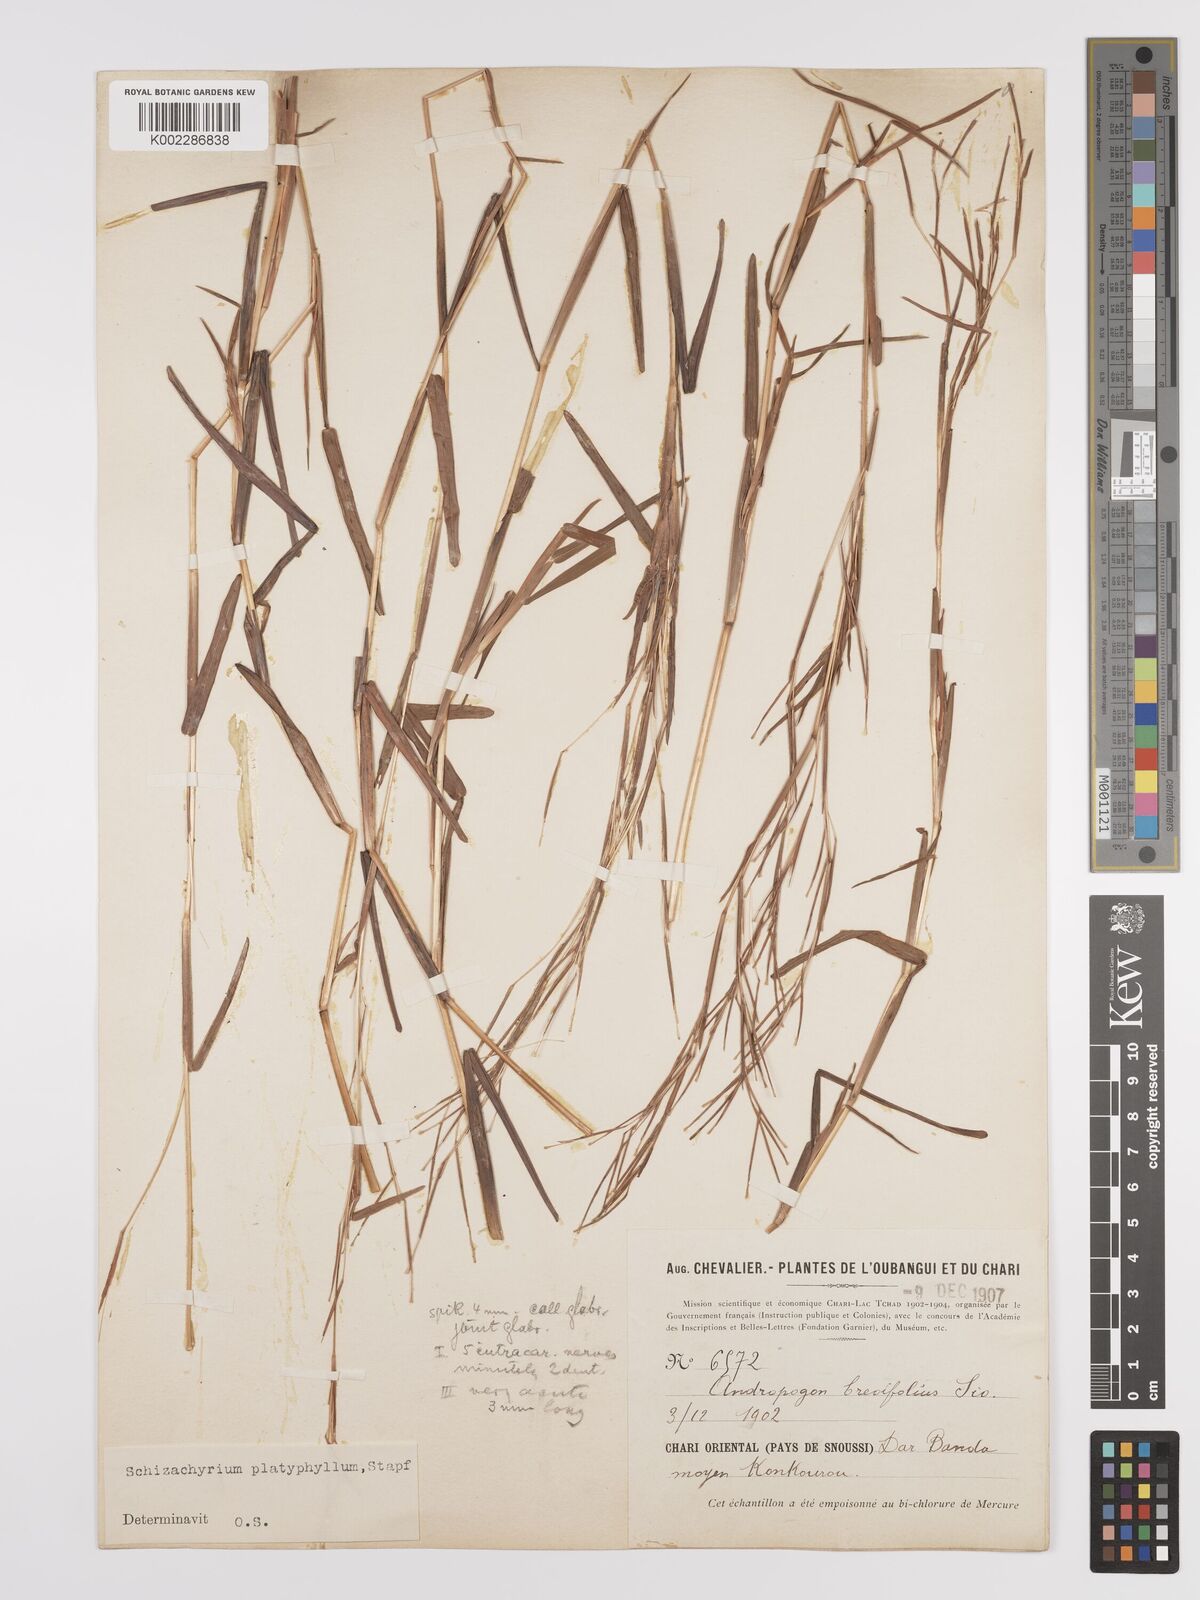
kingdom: Plantae
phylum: Tracheophyta
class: Liliopsida
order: Poales
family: Poaceae
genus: Schizachyrium
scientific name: Schizachyrium platyphyllum
